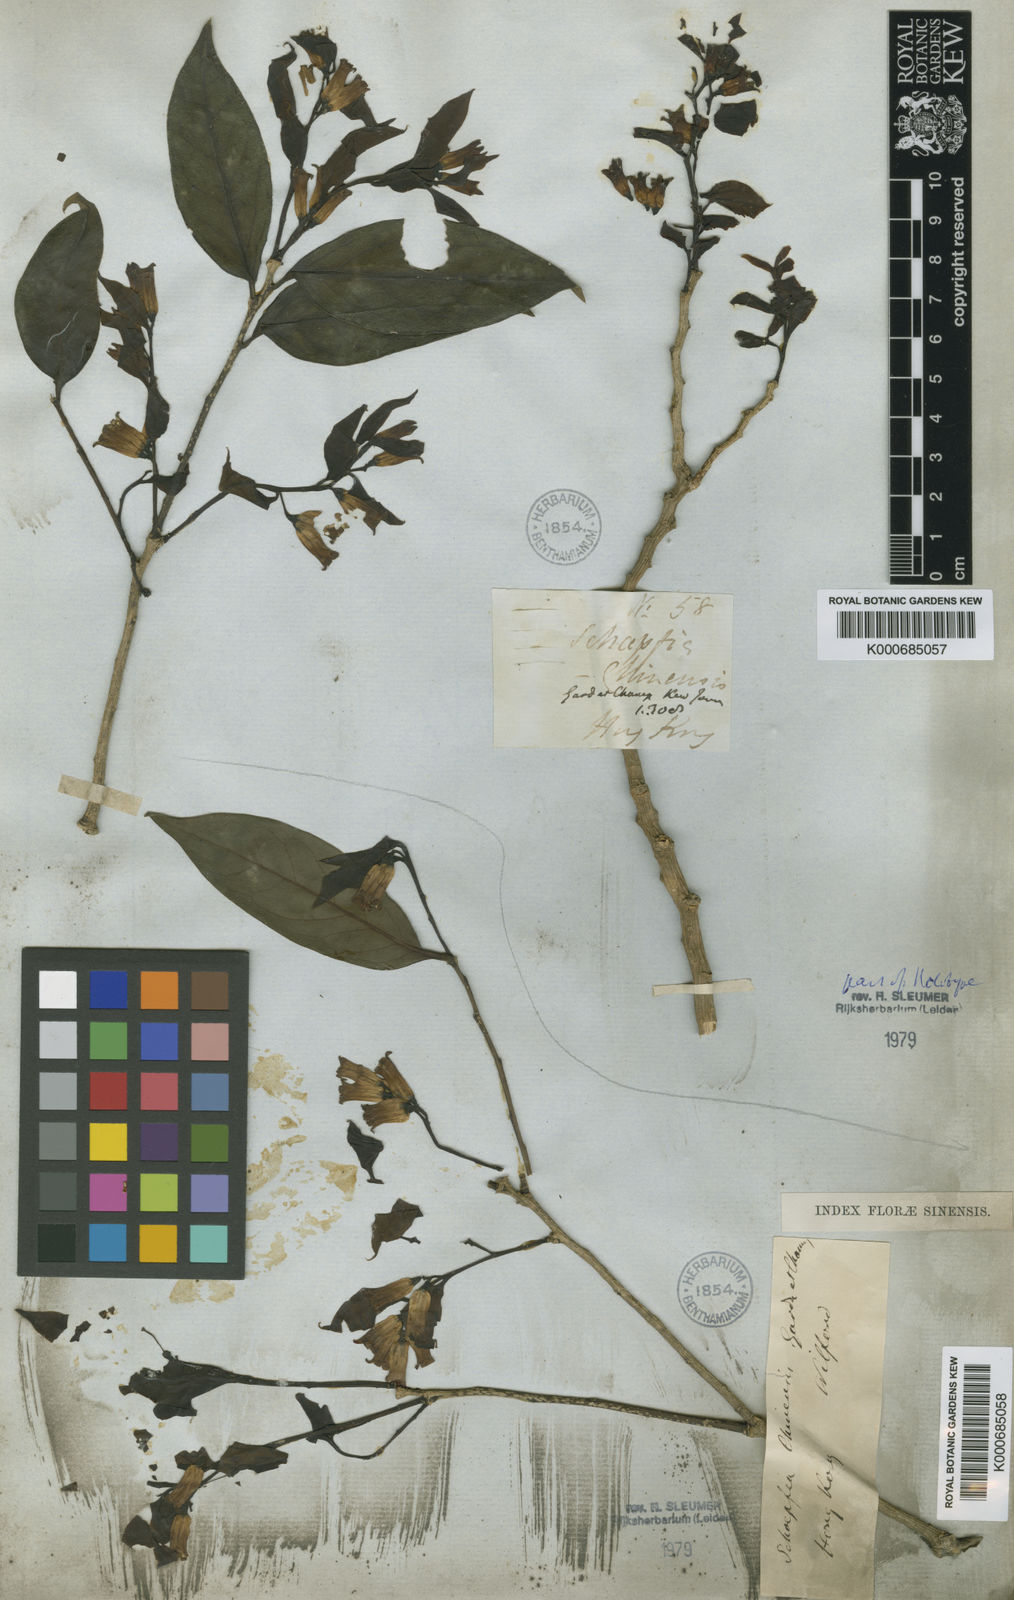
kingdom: Plantae
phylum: Tracheophyta
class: Magnoliopsida
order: Santalales
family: Schoepfiaceae
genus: Schoepfia
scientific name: Schoepfia chinensis
